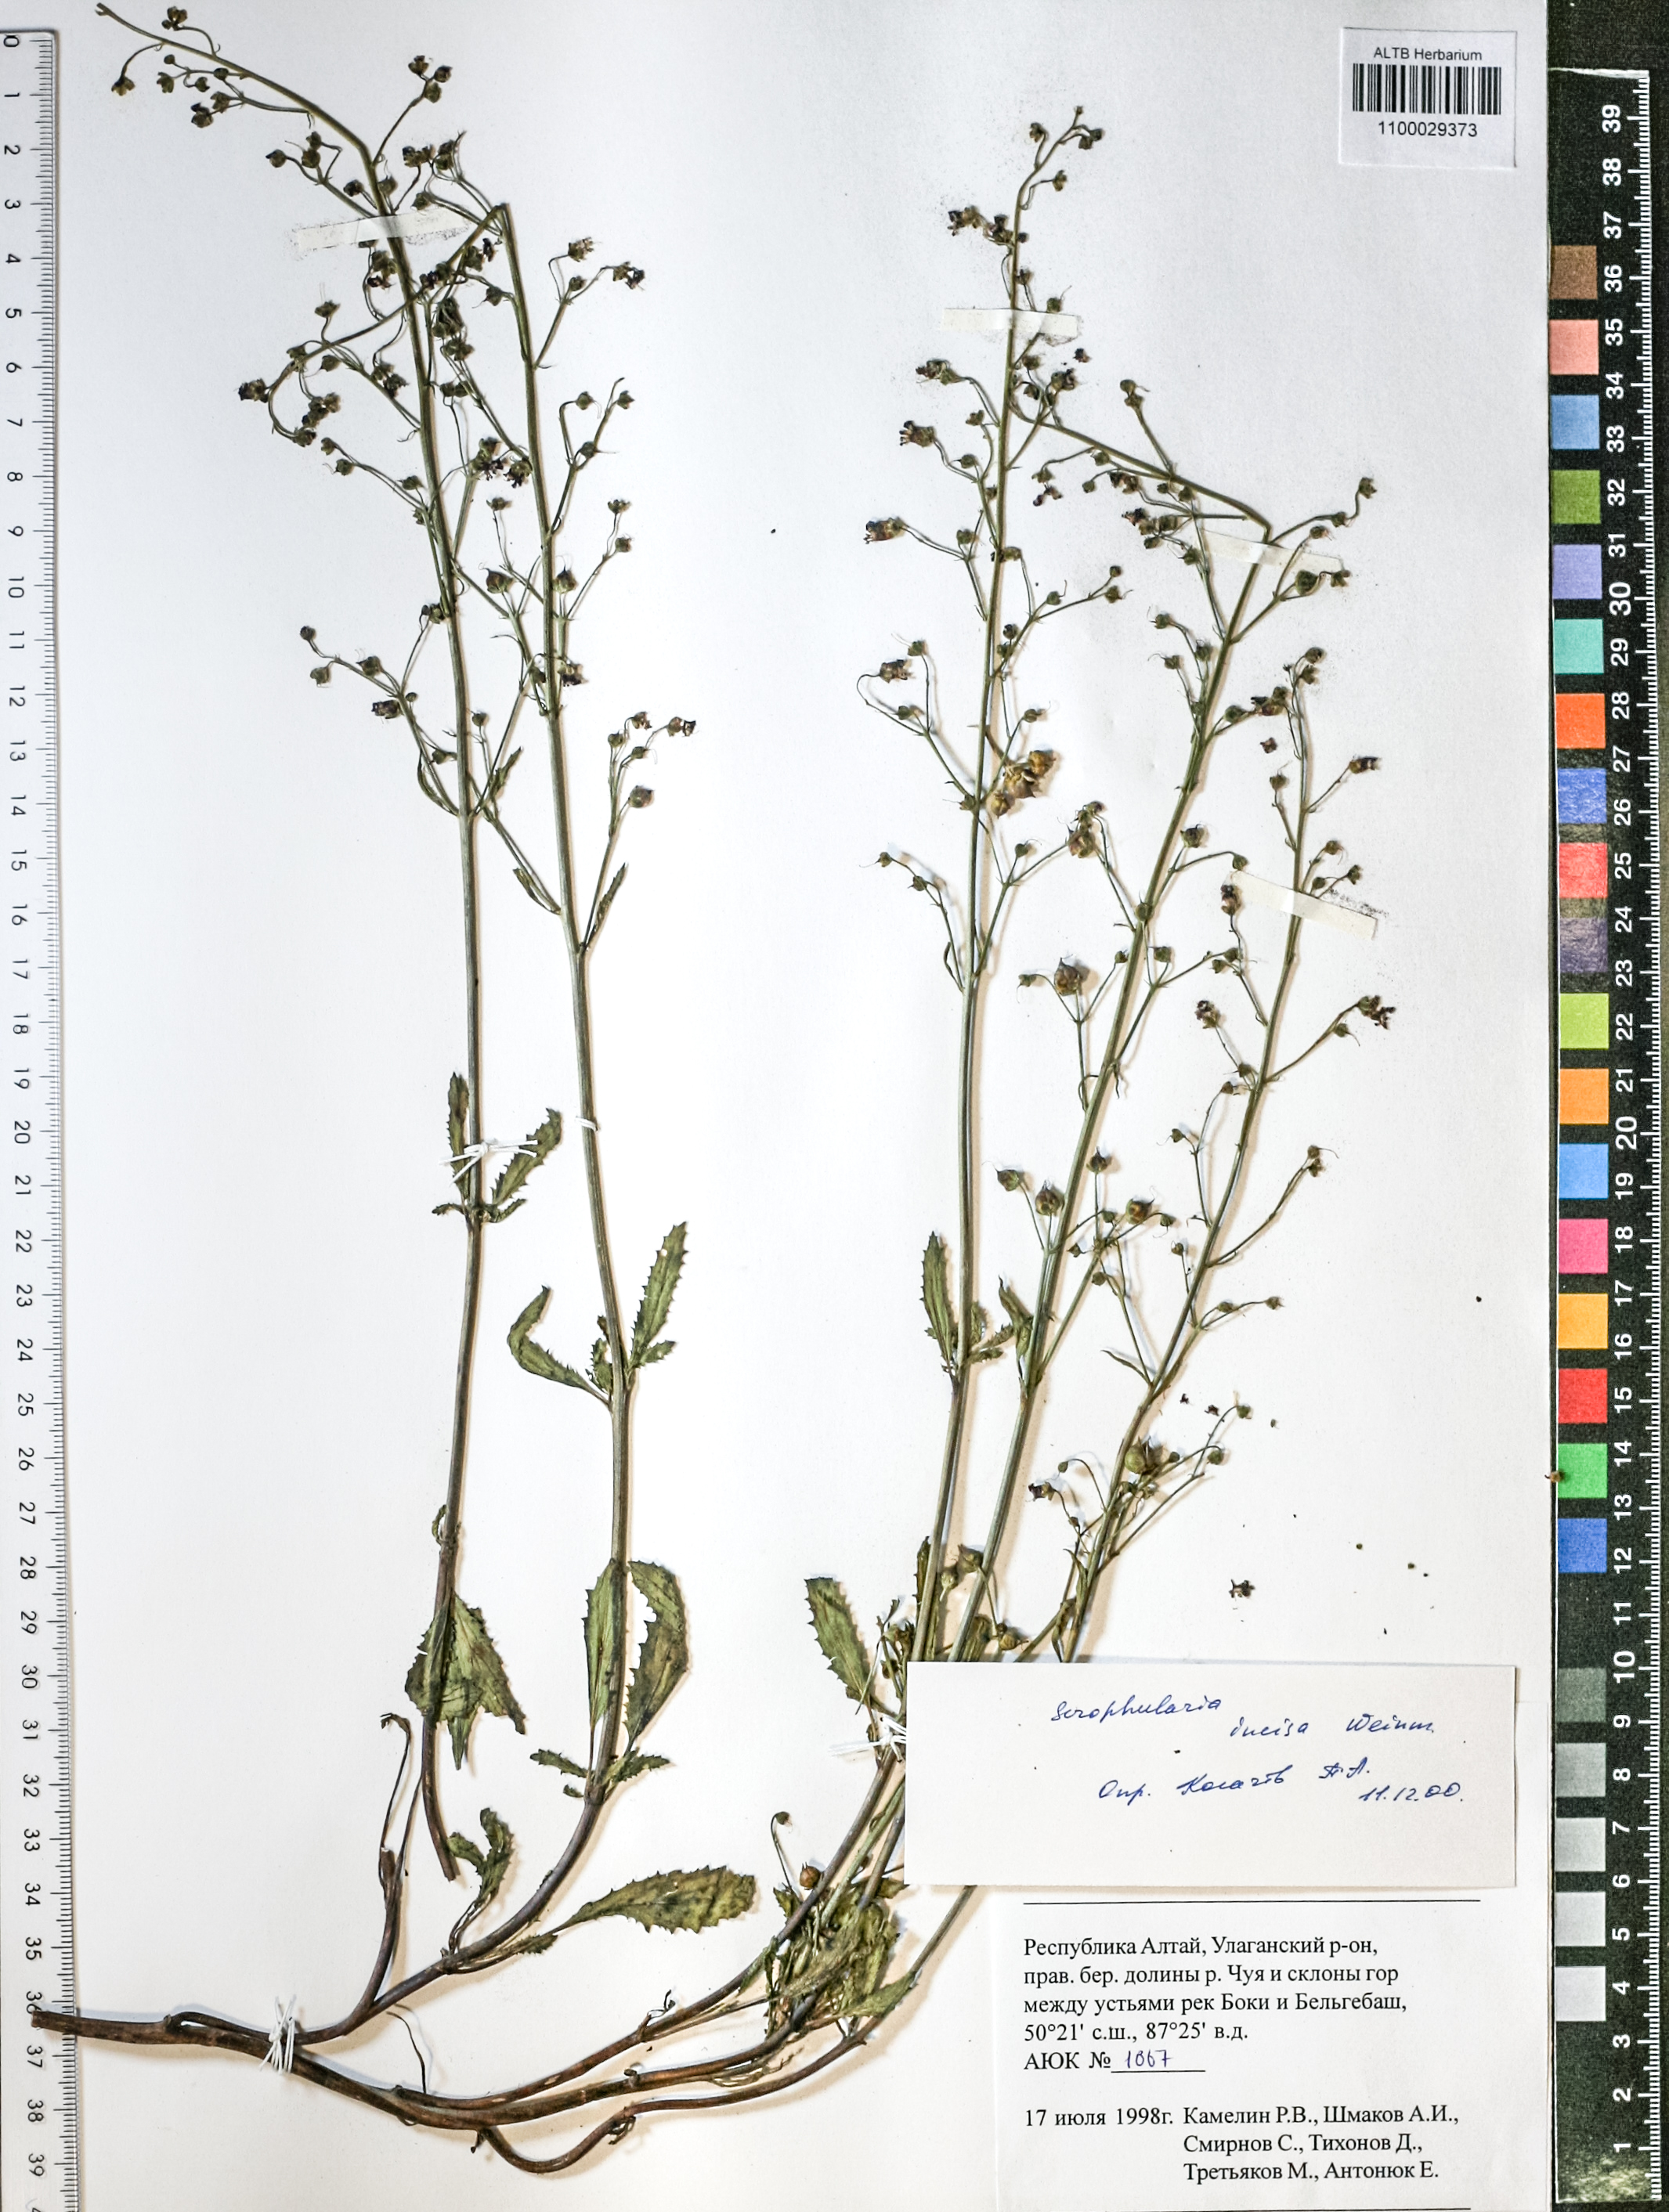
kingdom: Plantae
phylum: Tracheophyta
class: Magnoliopsida
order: Lamiales
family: Scrophulariaceae
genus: Scrophularia
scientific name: Scrophularia incisa
